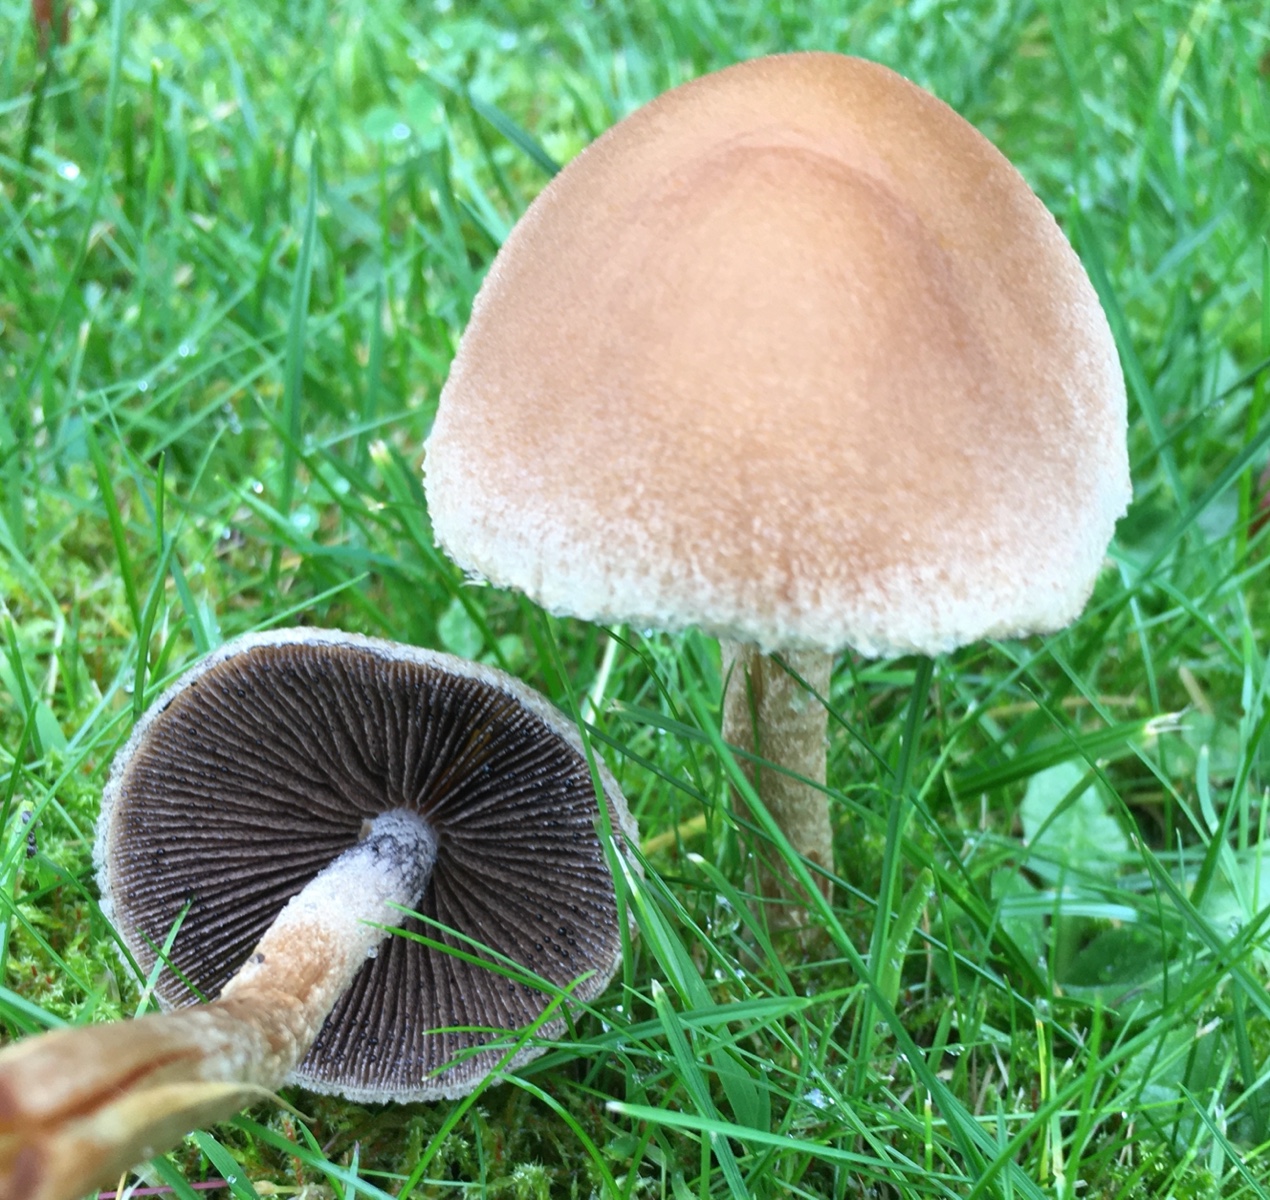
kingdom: Fungi
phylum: Basidiomycota
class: Agaricomycetes
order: Agaricales
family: Psathyrellaceae
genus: Lacrymaria
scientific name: Lacrymaria lacrymabunda
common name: grædende mørkhat
